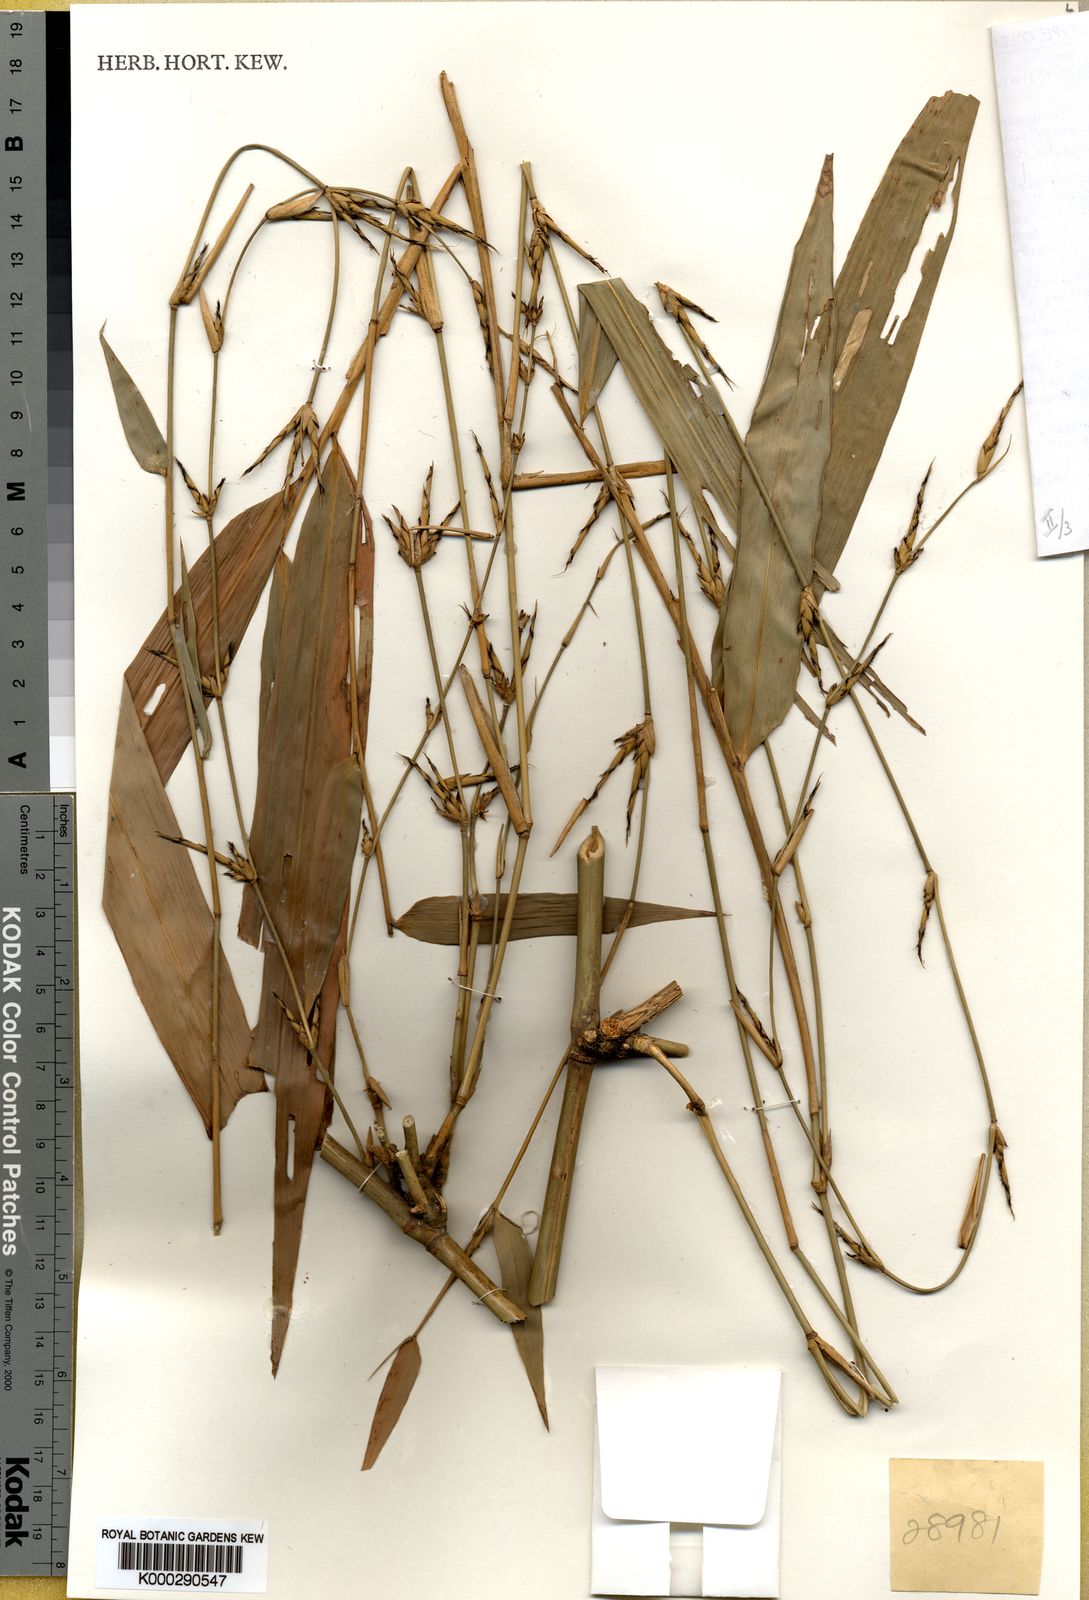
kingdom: Plantae
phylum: Tracheophyta
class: Liliopsida
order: Poales
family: Poaceae
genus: Gigantochloa
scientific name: Gigantochloa rostrata
